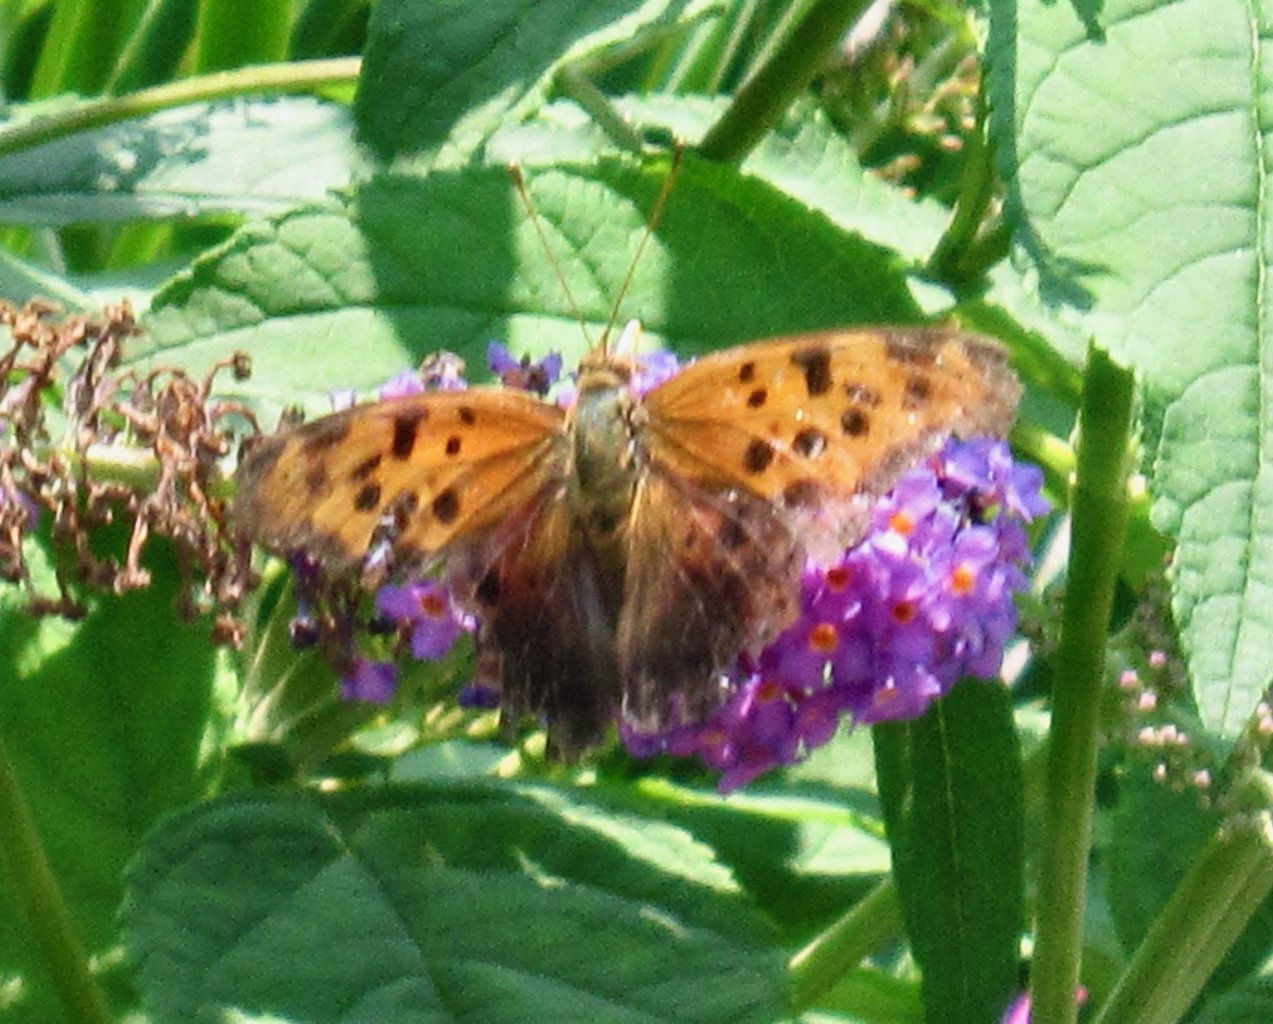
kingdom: Animalia
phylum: Arthropoda
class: Insecta
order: Lepidoptera
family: Nymphalidae
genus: Polygonia
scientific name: Polygonia interrogationis
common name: Question Mark
